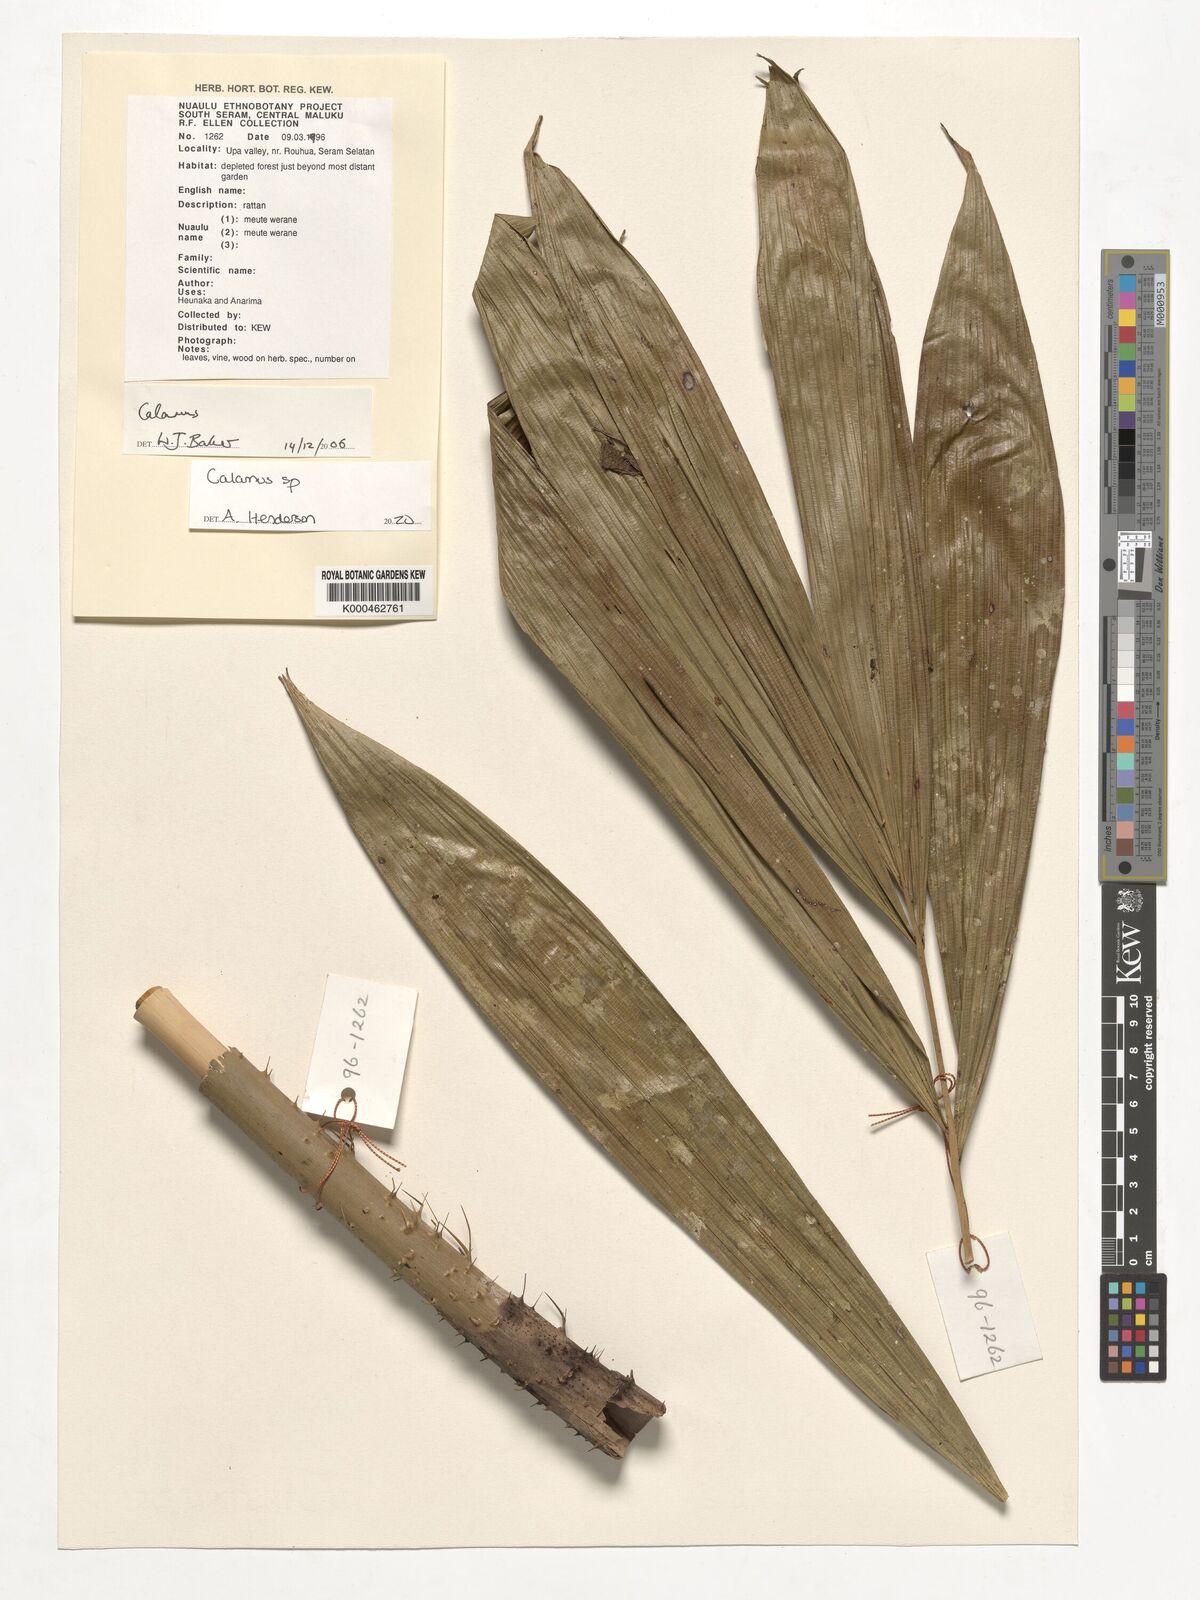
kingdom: Plantae
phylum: Tracheophyta
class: Liliopsida
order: Arecales
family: Arecaceae
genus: Calamus
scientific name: Calamus
